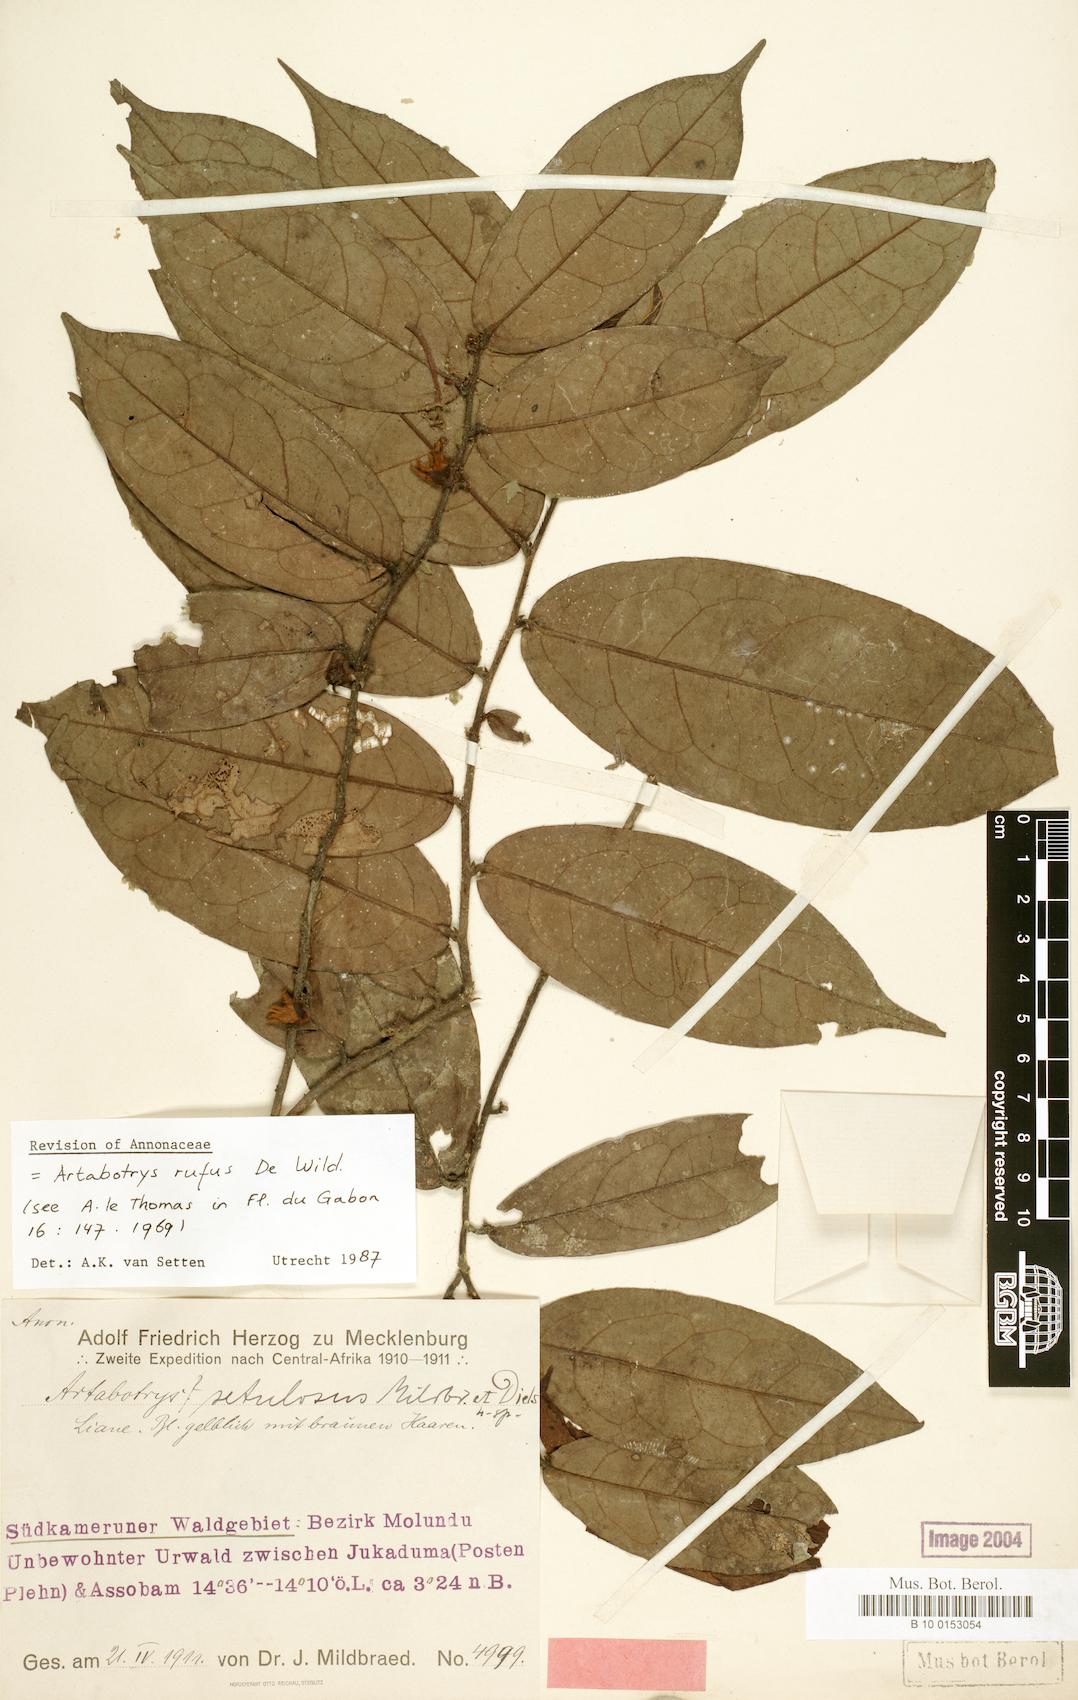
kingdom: Plantae
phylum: Tracheophyta
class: Magnoliopsida
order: Magnoliales
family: Annonaceae
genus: Artabotrys
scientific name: Artabotrys rufus
